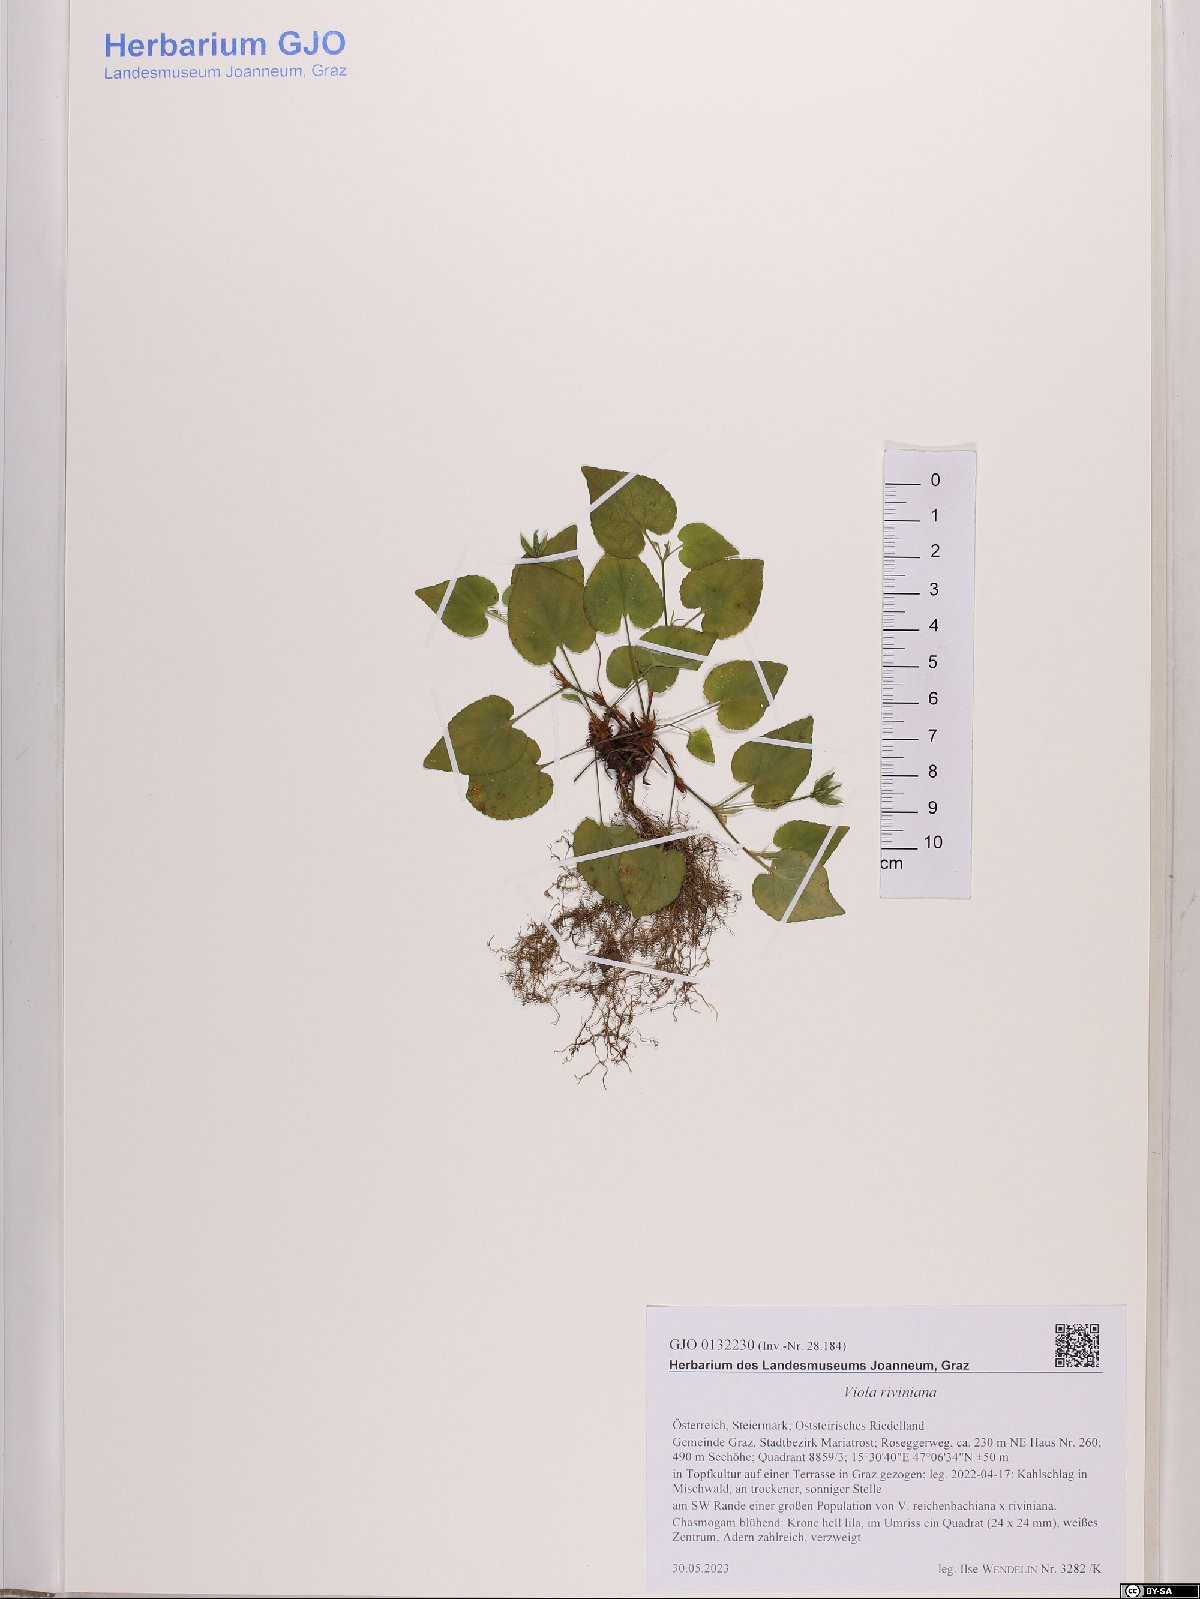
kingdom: Plantae
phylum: Tracheophyta
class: Magnoliopsida
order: Malpighiales
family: Violaceae
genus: Viola
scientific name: Viola riviniana
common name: Common dog-violet
